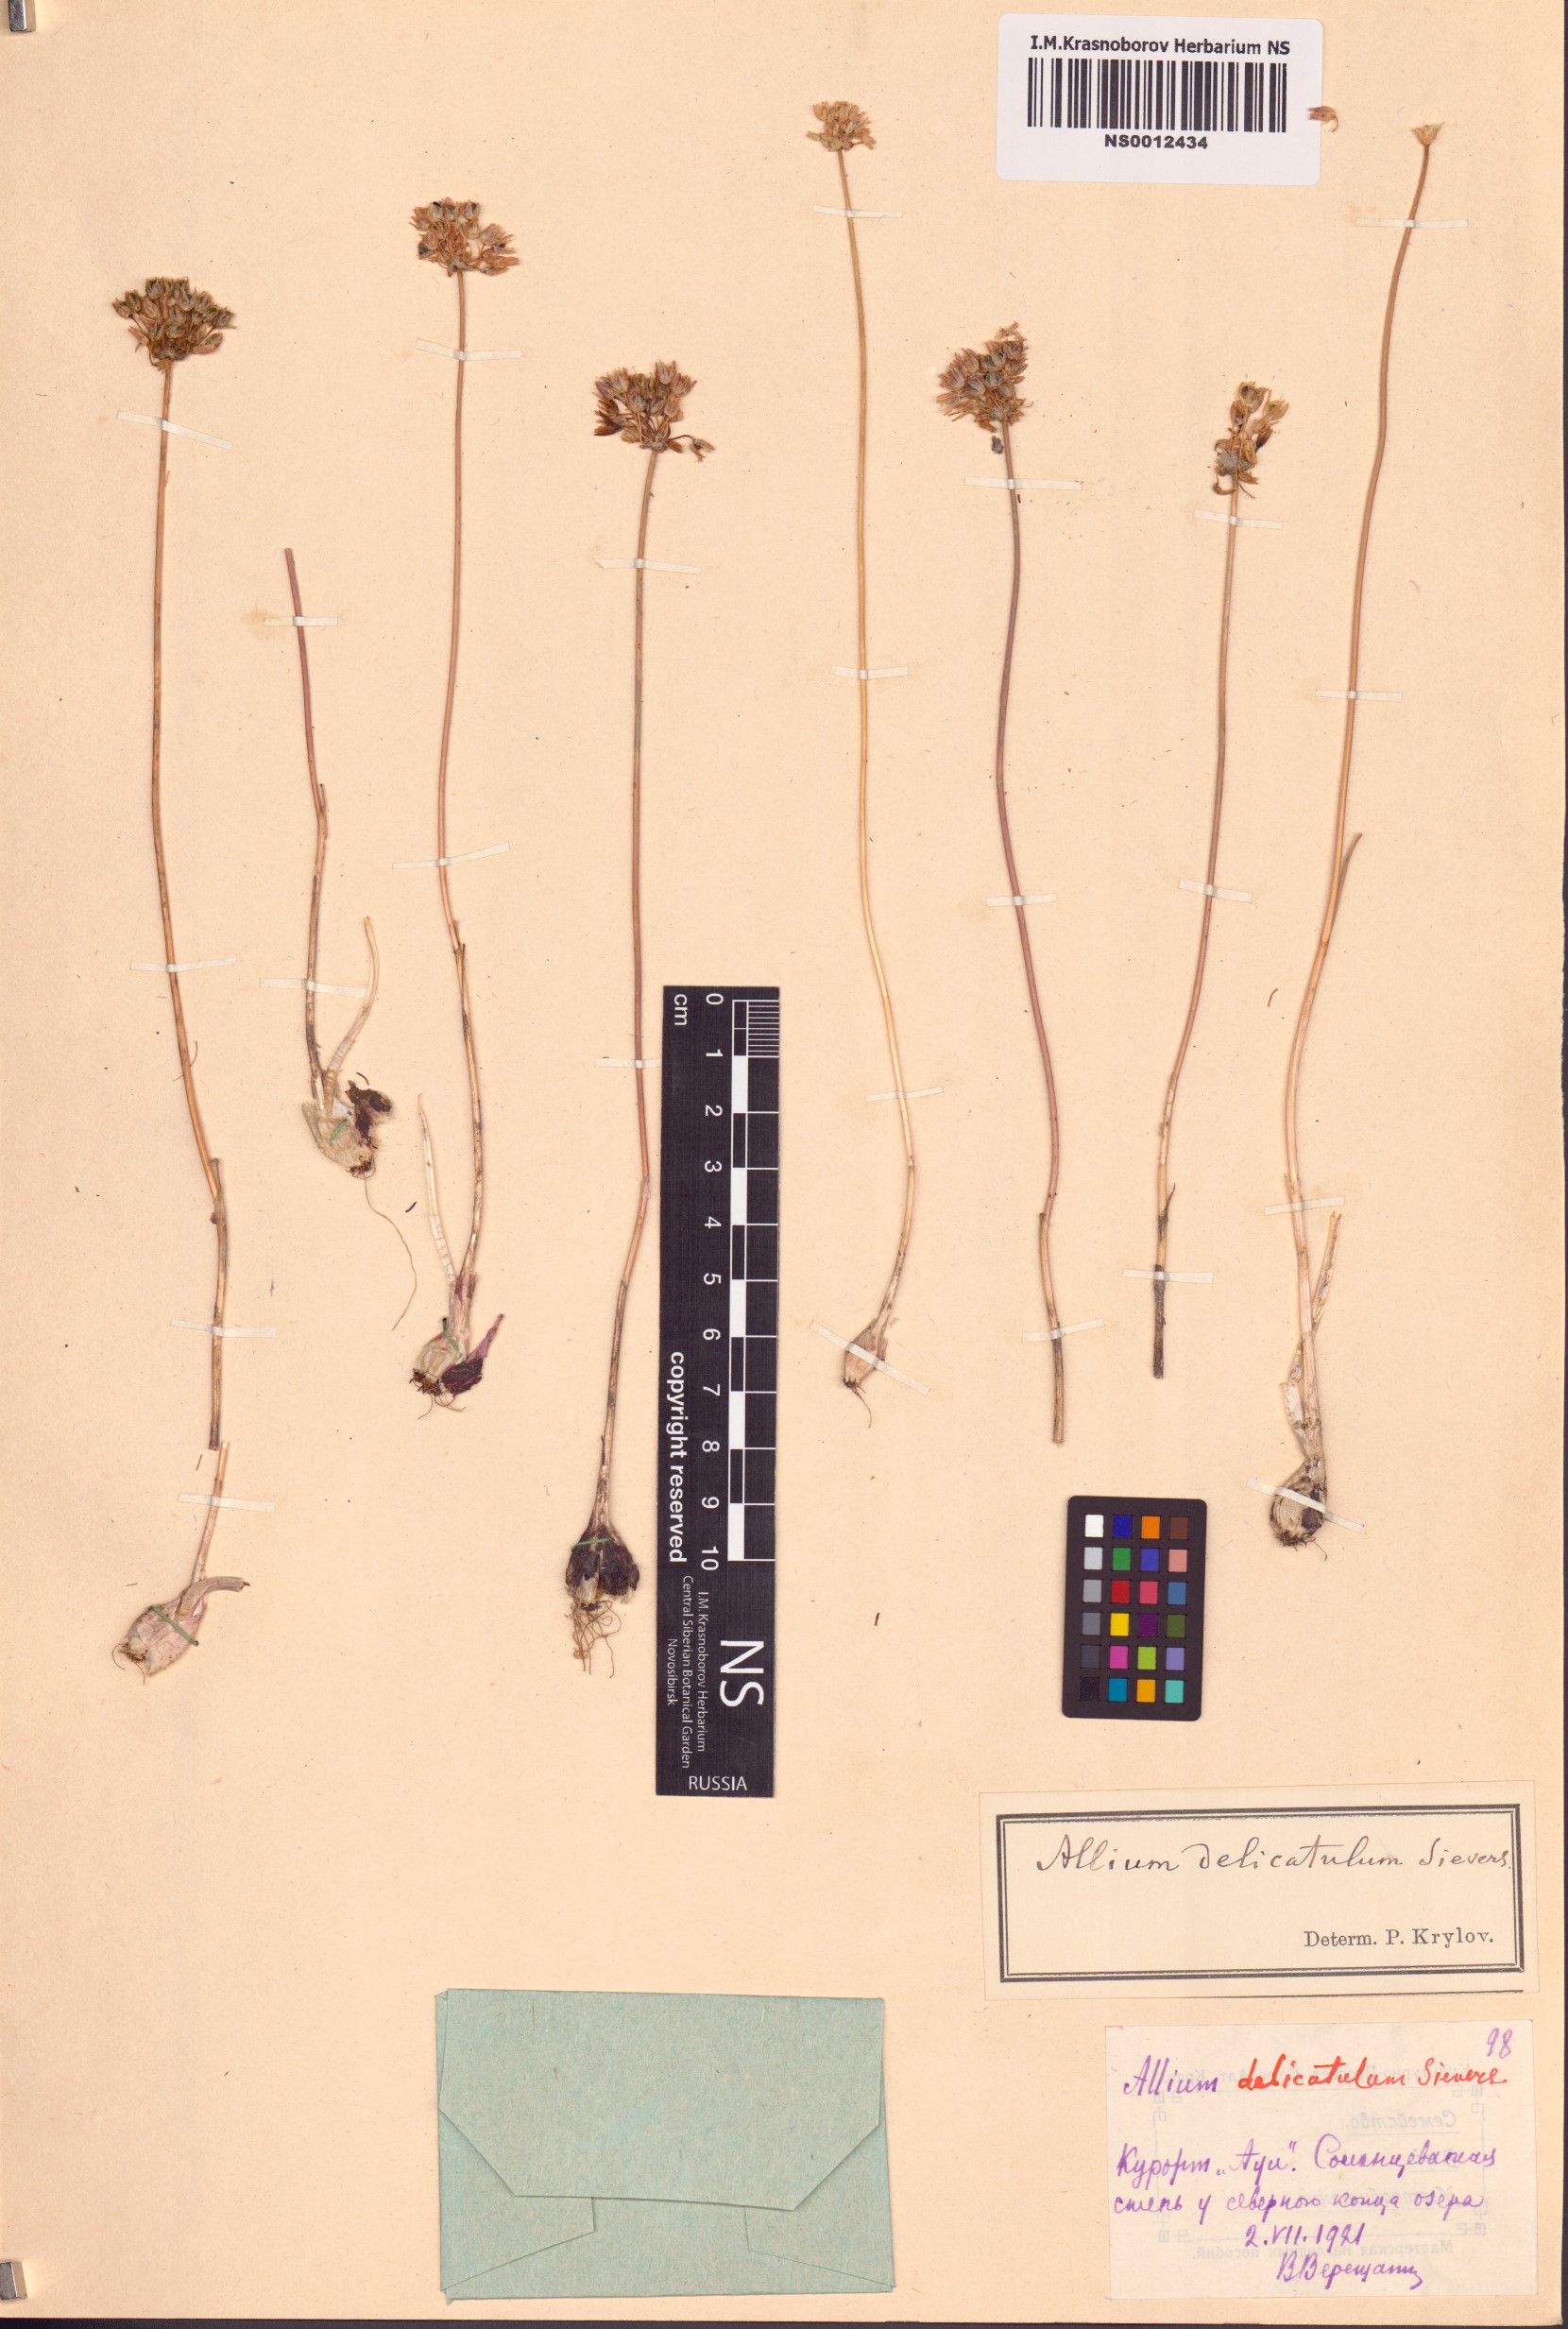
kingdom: Plantae
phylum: Tracheophyta
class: Liliopsida
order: Asparagales
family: Amaryllidaceae
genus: Allium
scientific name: Allium delicatulum
